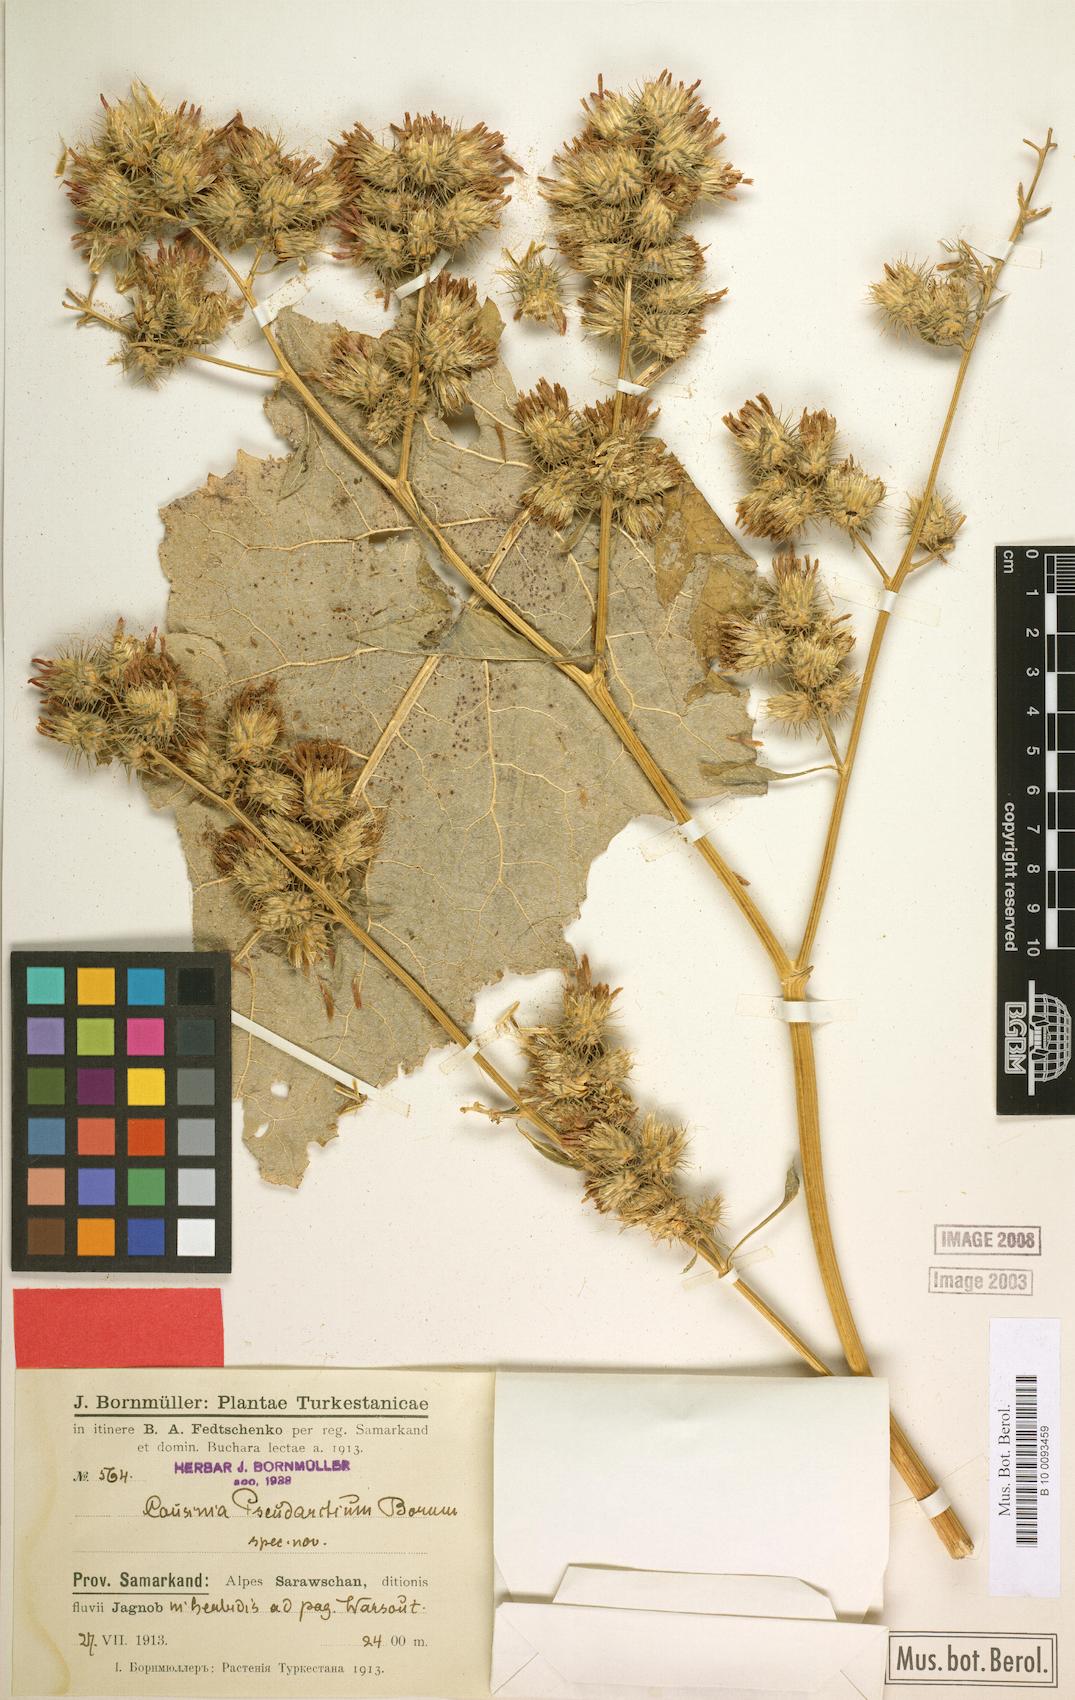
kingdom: Plantae
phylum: Tracheophyta
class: Magnoliopsida
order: Asterales
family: Asteraceae
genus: Arctium
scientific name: Arctium pseudarctium
